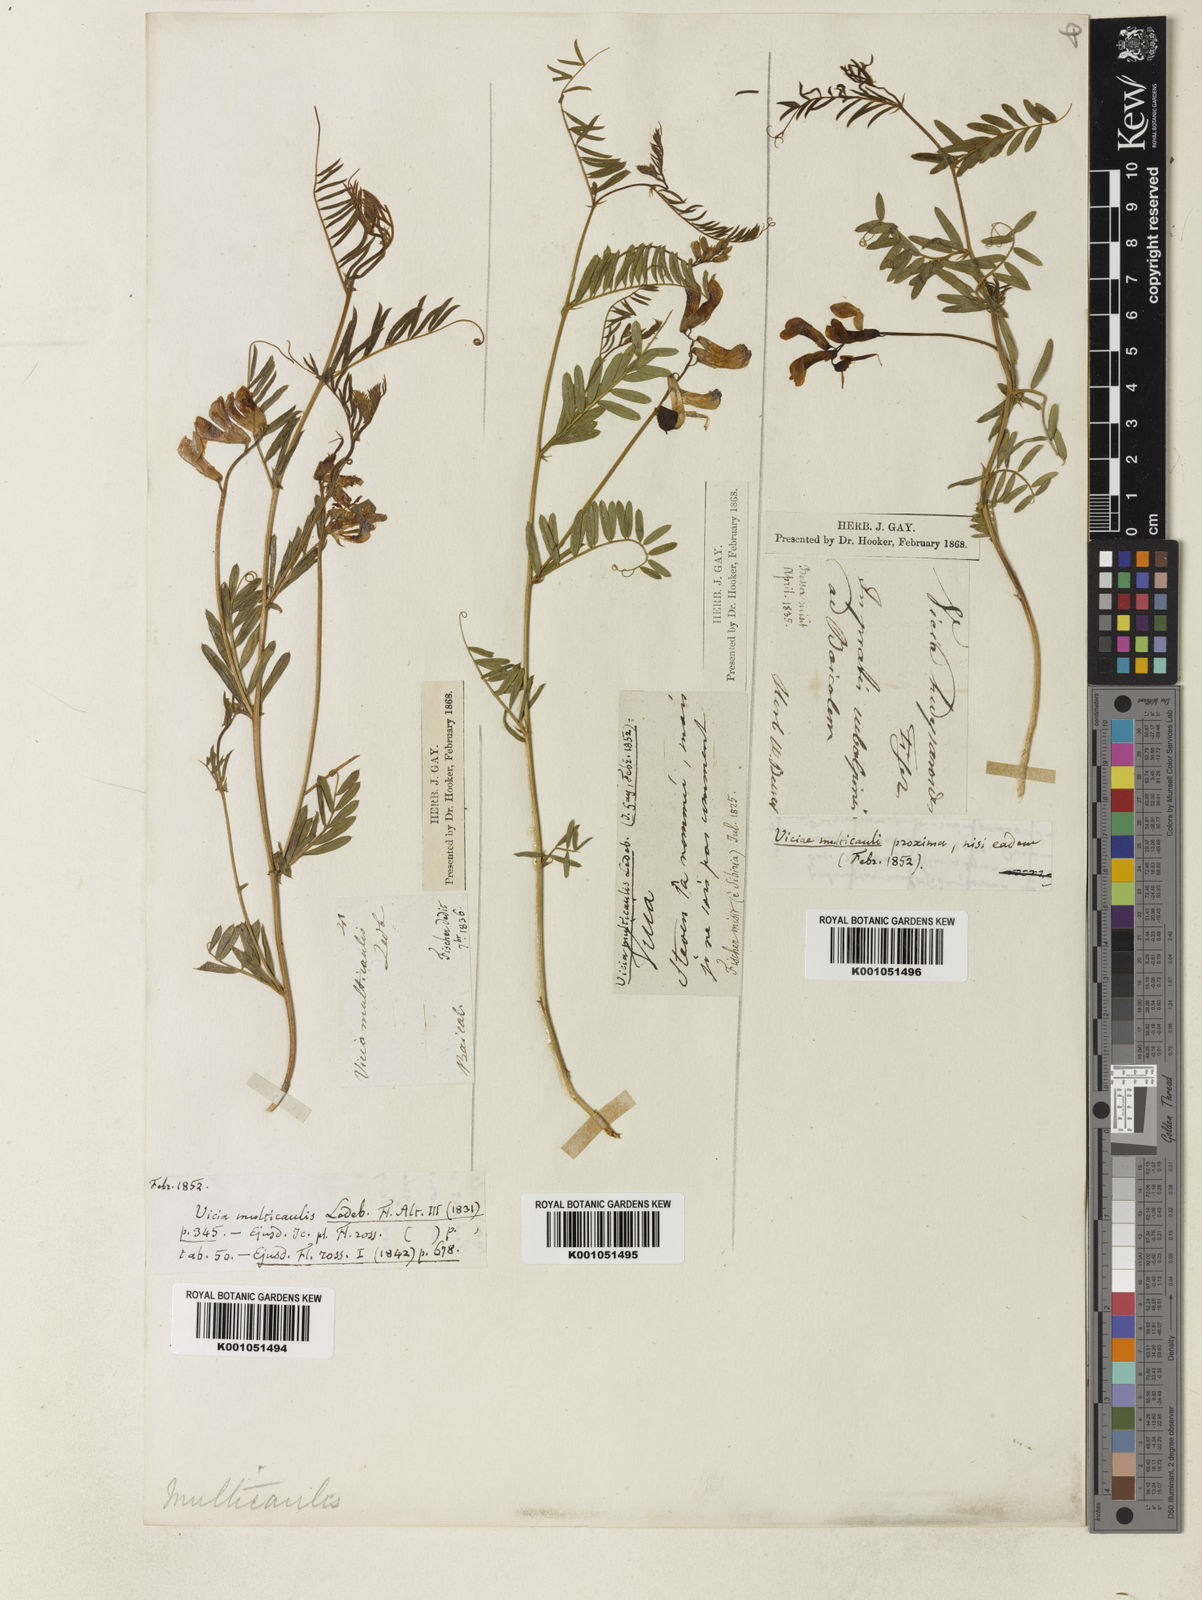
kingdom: Plantae
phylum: Tracheophyta
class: Magnoliopsida
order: Fabales
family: Fabaceae
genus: Vicia
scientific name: Vicia multicaulis
